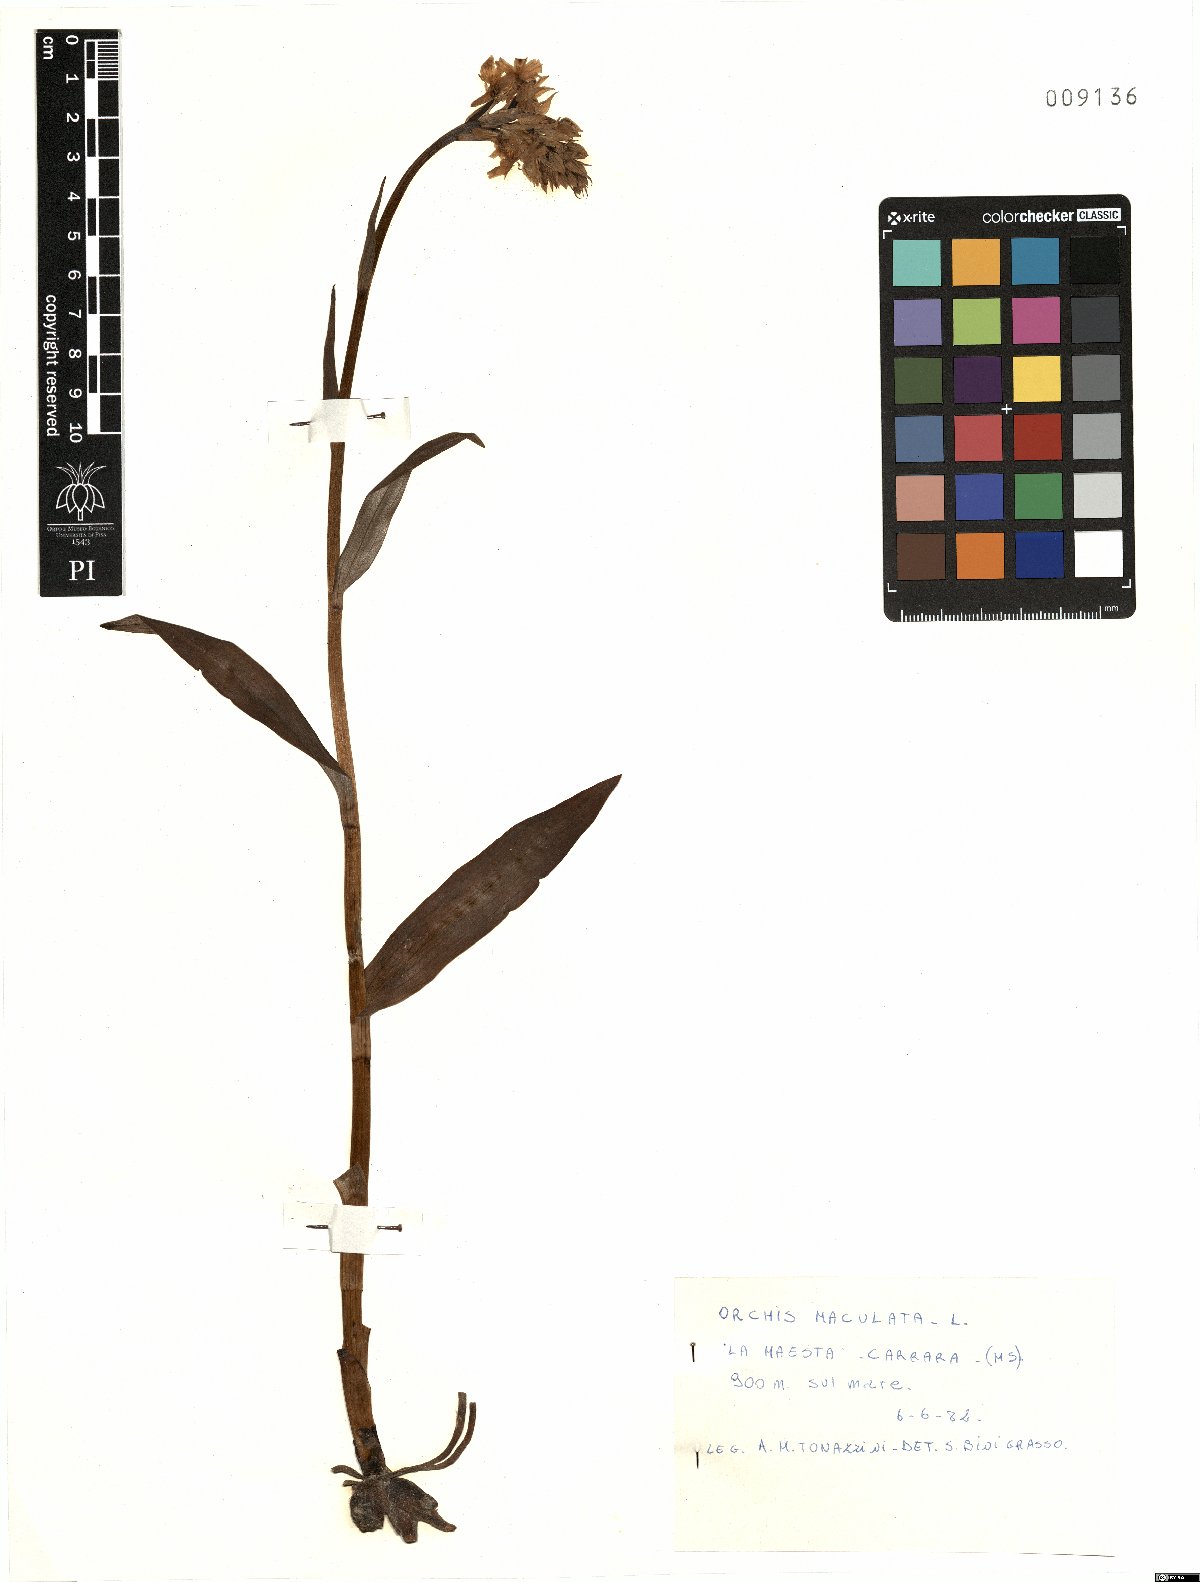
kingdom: Plantae
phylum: Tracheophyta
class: Liliopsida
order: Asparagales
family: Orchidaceae
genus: Dactylorhiza
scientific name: Dactylorhiza maculata
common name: Heath spotted-orchid
